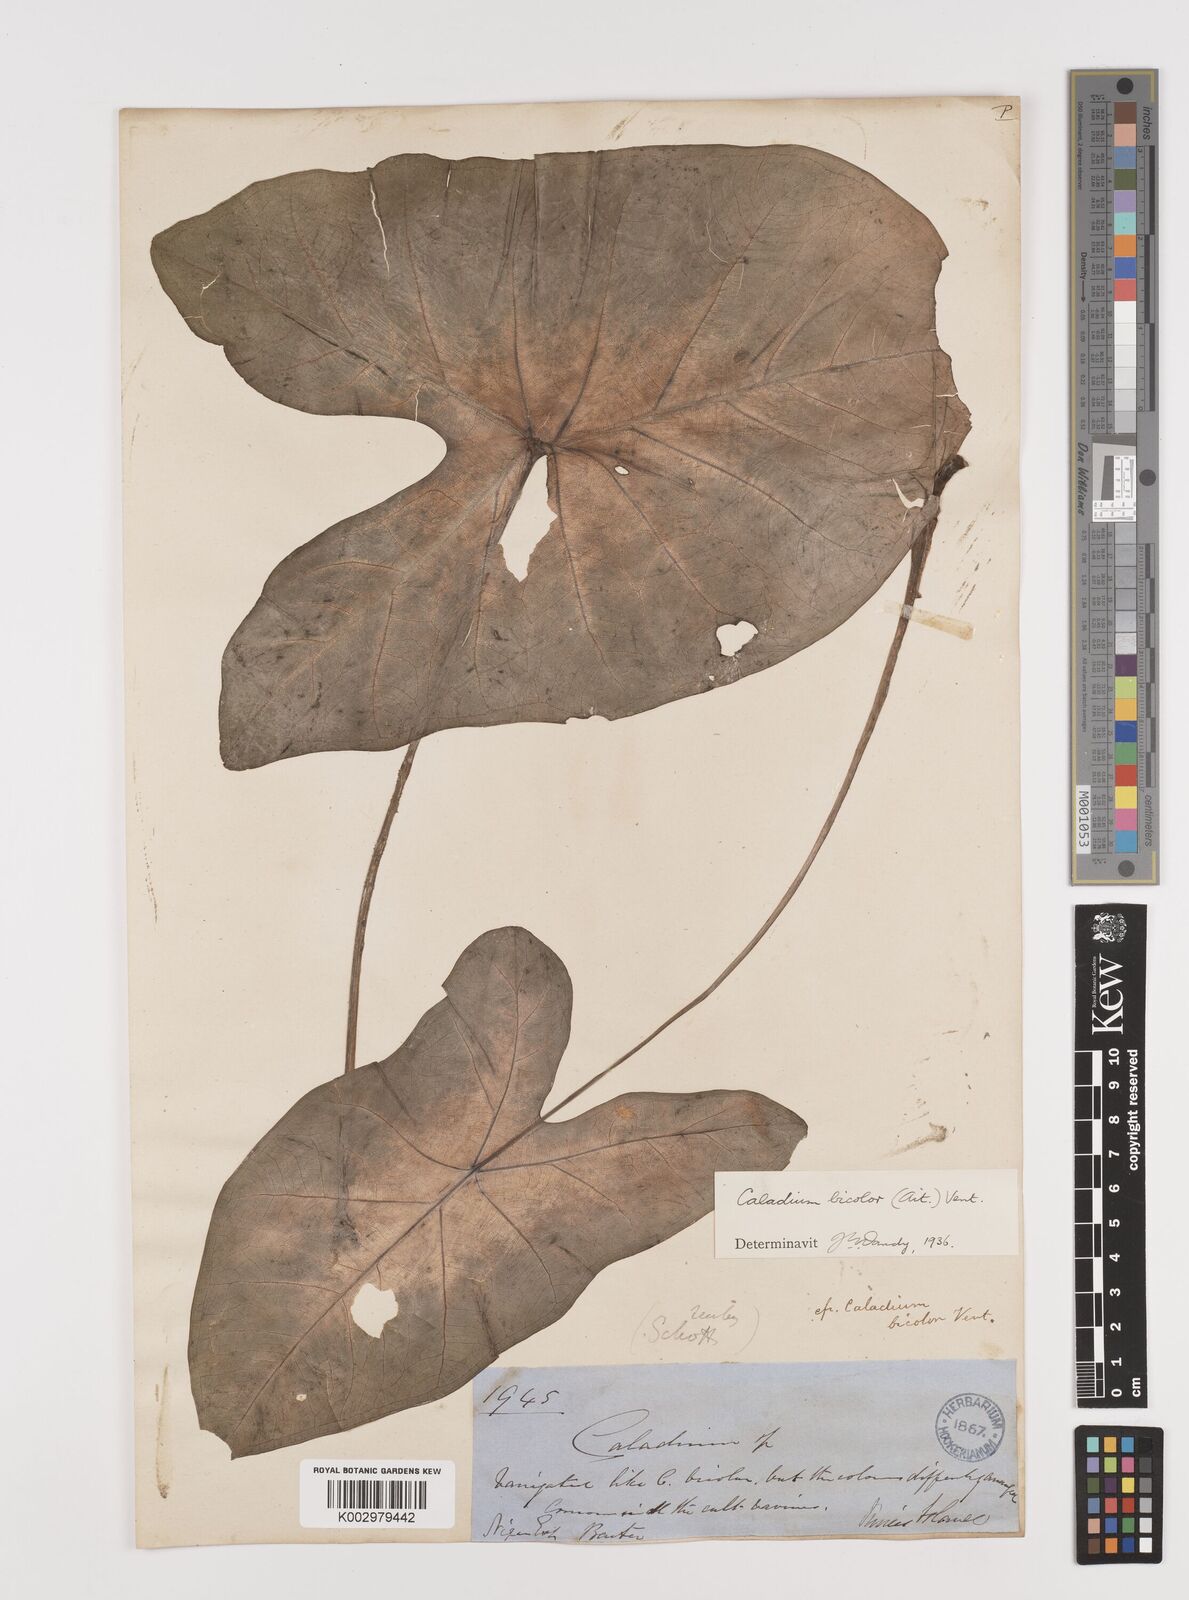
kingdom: Plantae
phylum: Tracheophyta
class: Liliopsida
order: Alismatales
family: Araceae
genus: Caladium
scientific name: Caladium bicolor
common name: Artist's pallet
